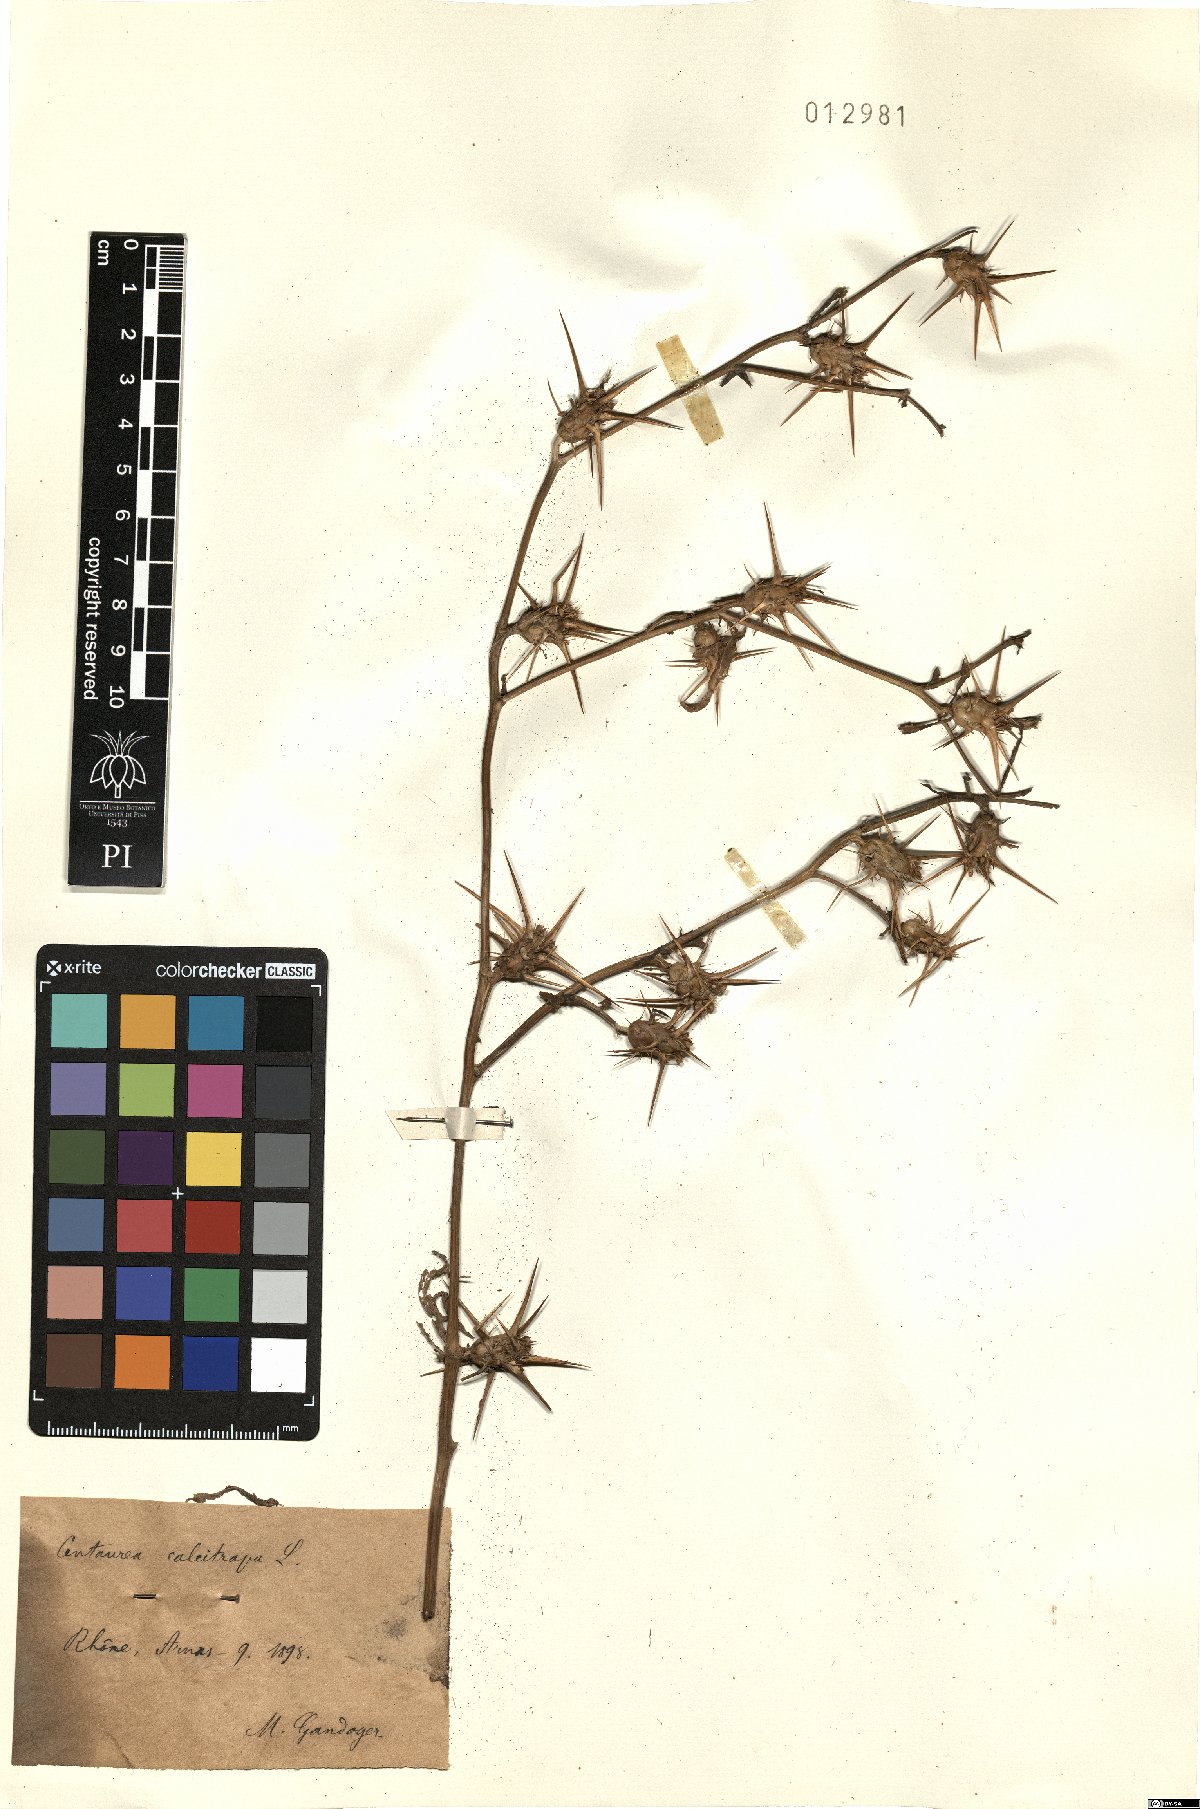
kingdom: Plantae
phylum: Tracheophyta
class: Magnoliopsida
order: Asterales
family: Asteraceae
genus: Centaurea
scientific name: Centaurea calcitrapa
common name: Red star-thistle
